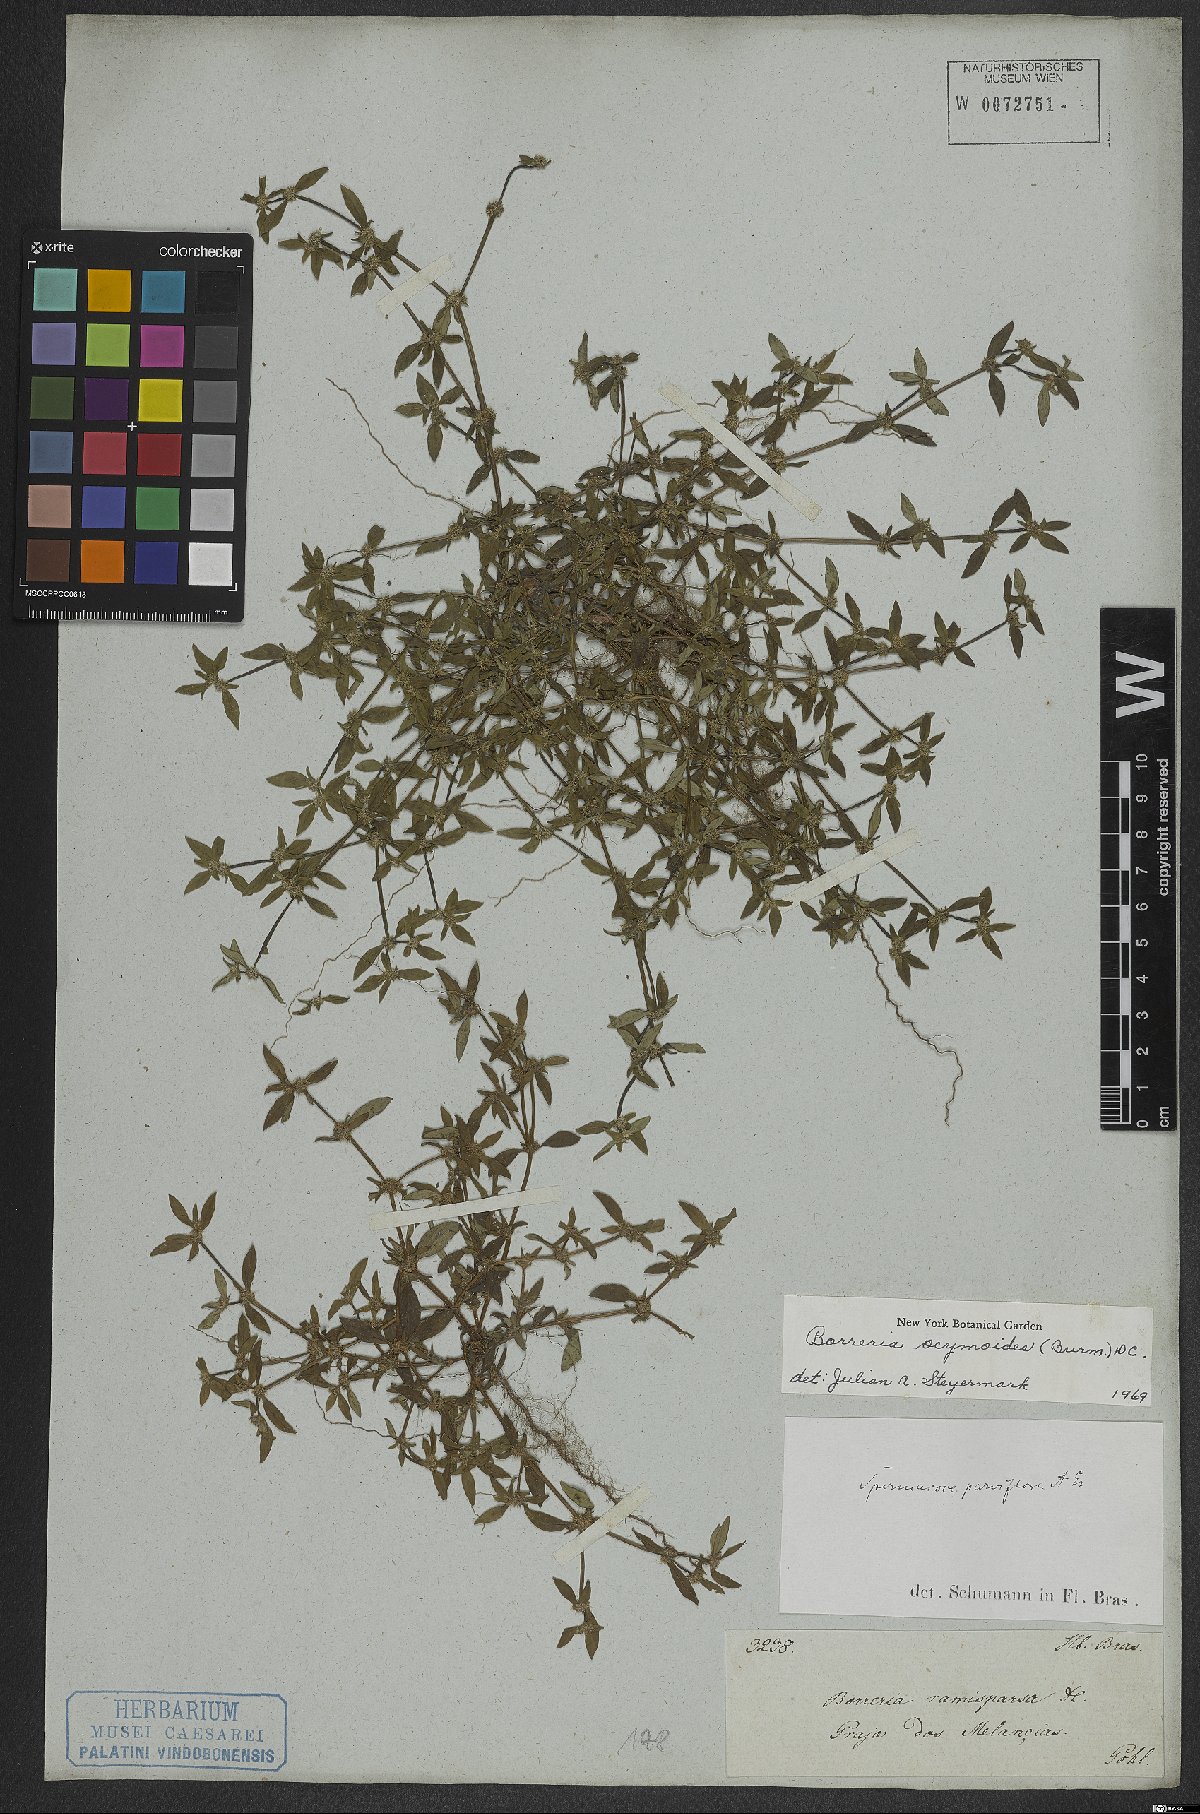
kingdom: Plantae
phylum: Tracheophyta
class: Magnoliopsida
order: Gentianales
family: Rubiaceae
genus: Spermacoce
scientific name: Spermacoce ocymoides
